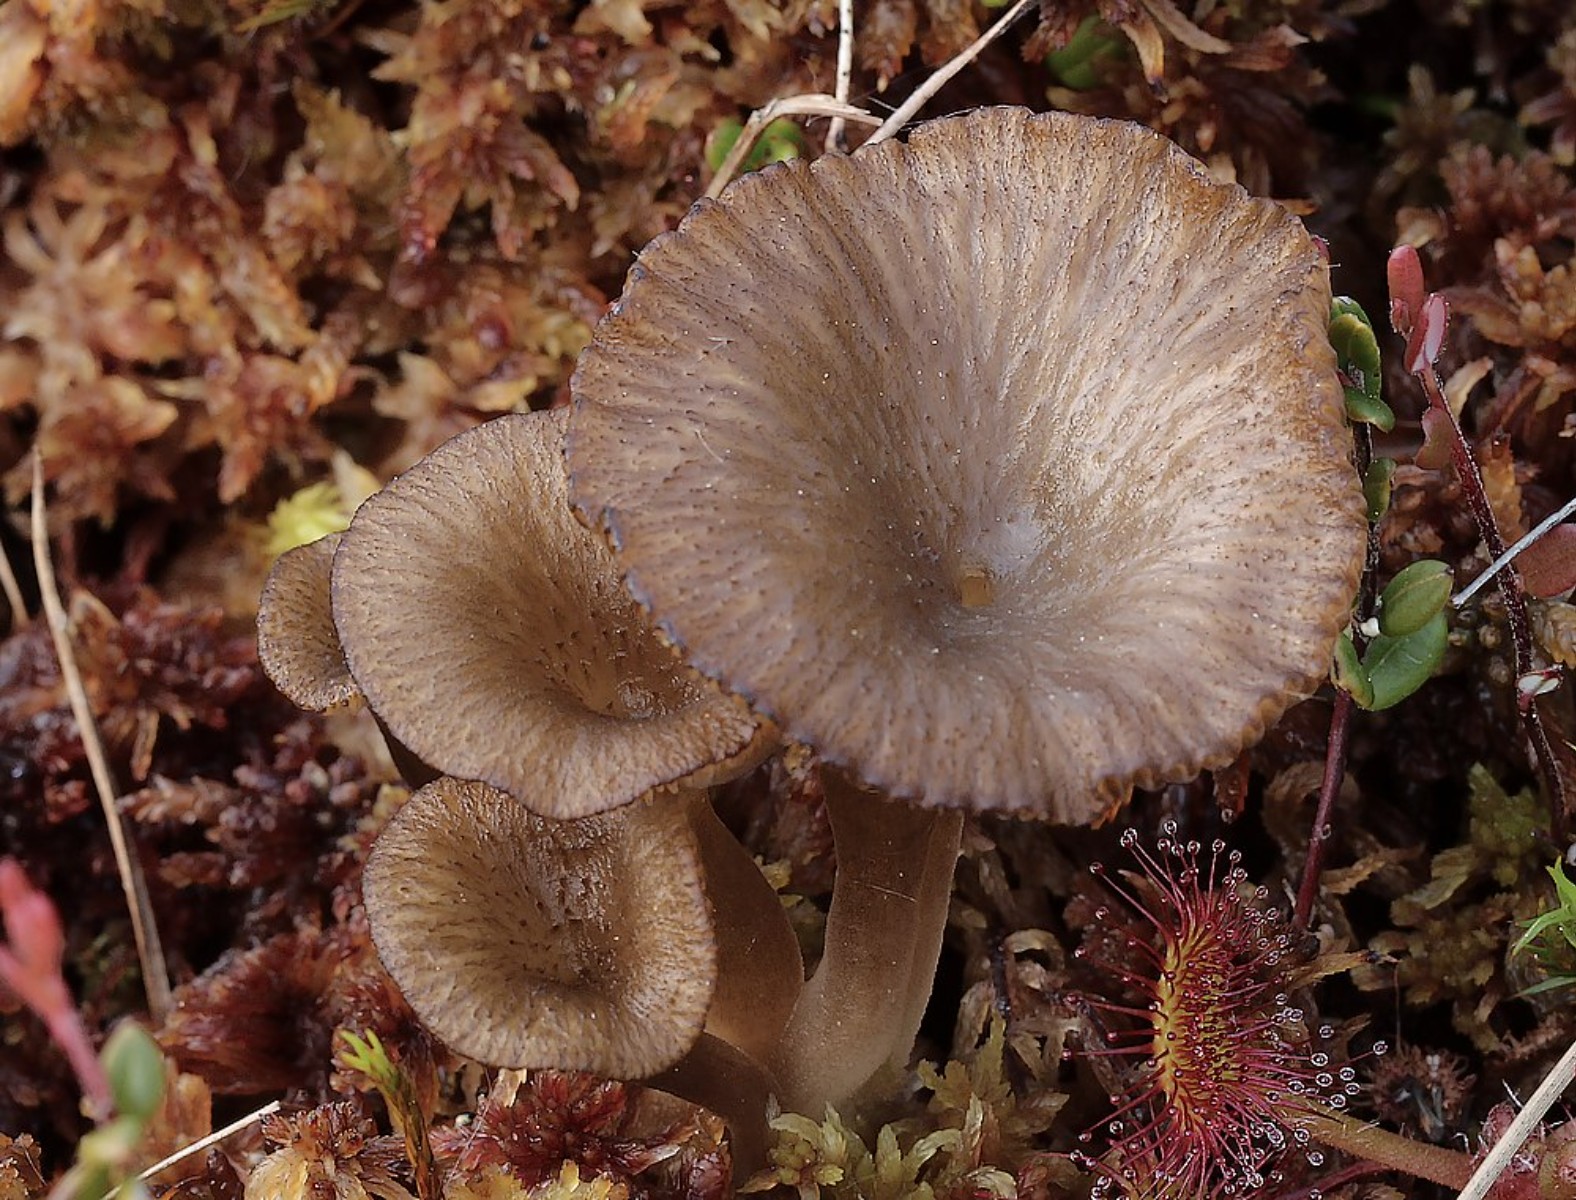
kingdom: Fungi
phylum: Basidiomycota
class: Agaricomycetes
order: Agaricales
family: Hygrophoraceae
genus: Arrhenia
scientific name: Arrhenia gerardiana
